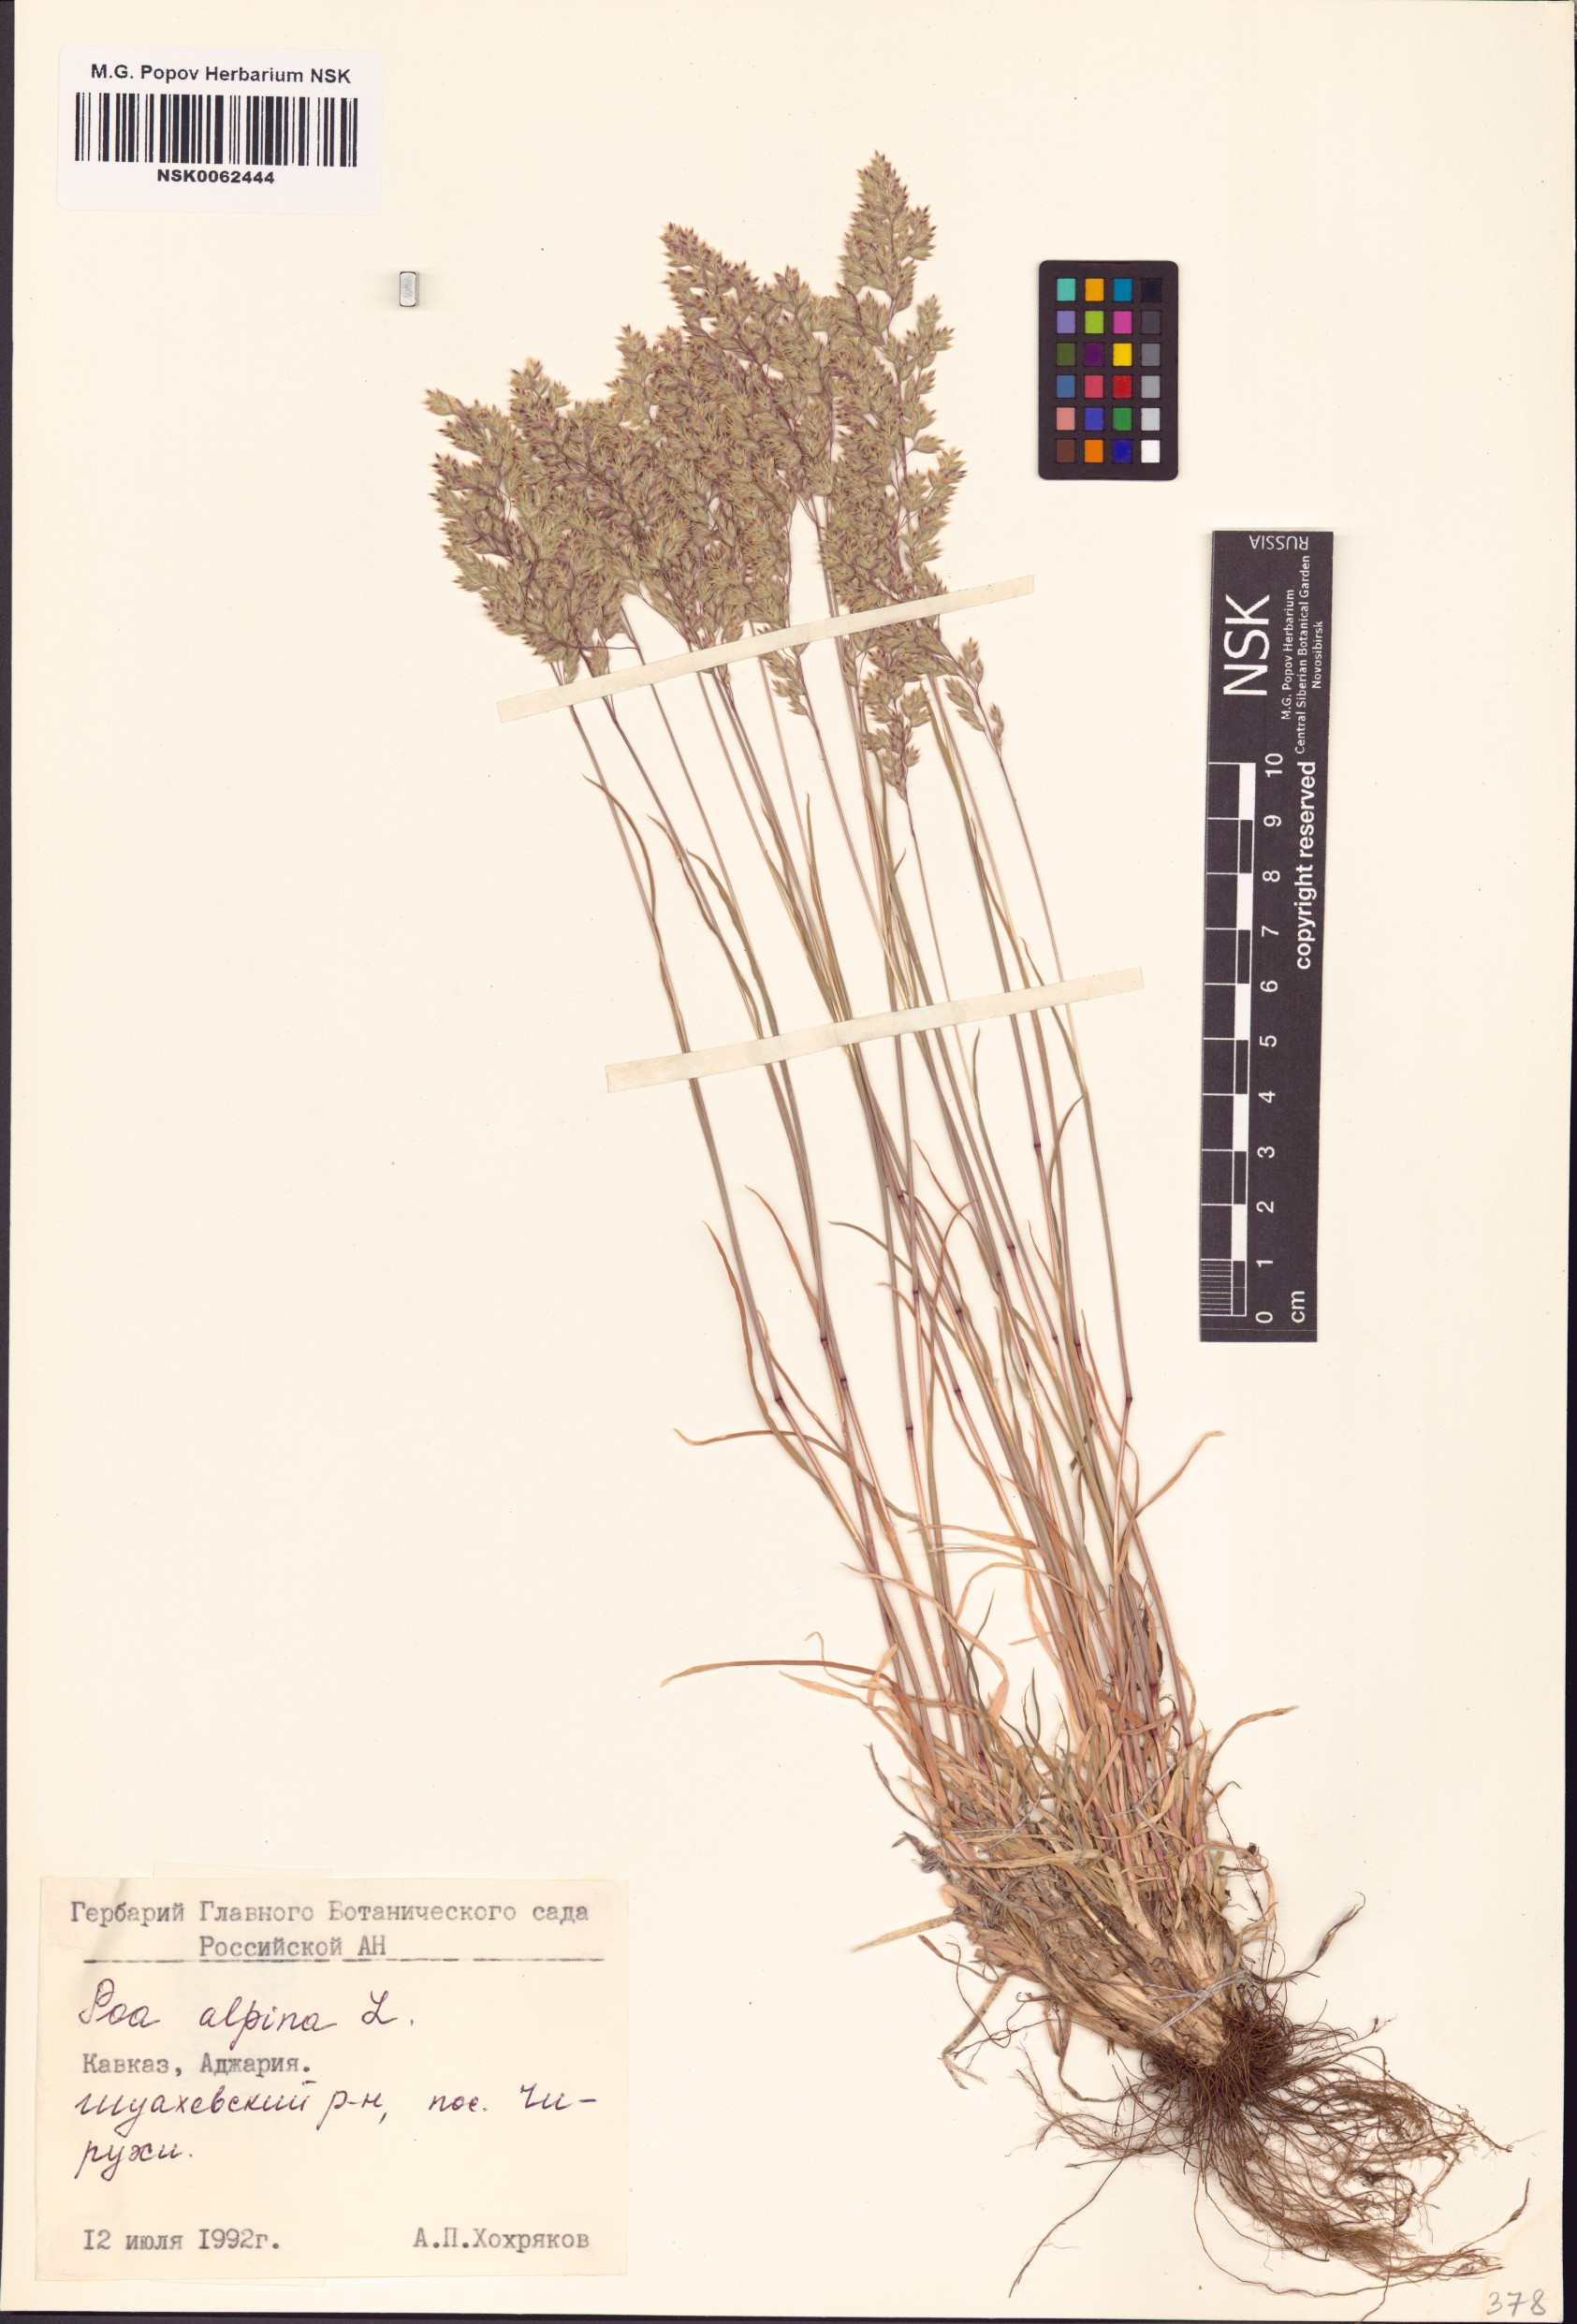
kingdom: Plantae
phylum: Tracheophyta
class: Liliopsida
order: Poales
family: Poaceae
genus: Poa
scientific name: Poa alpina
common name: Alpine bluegrass
